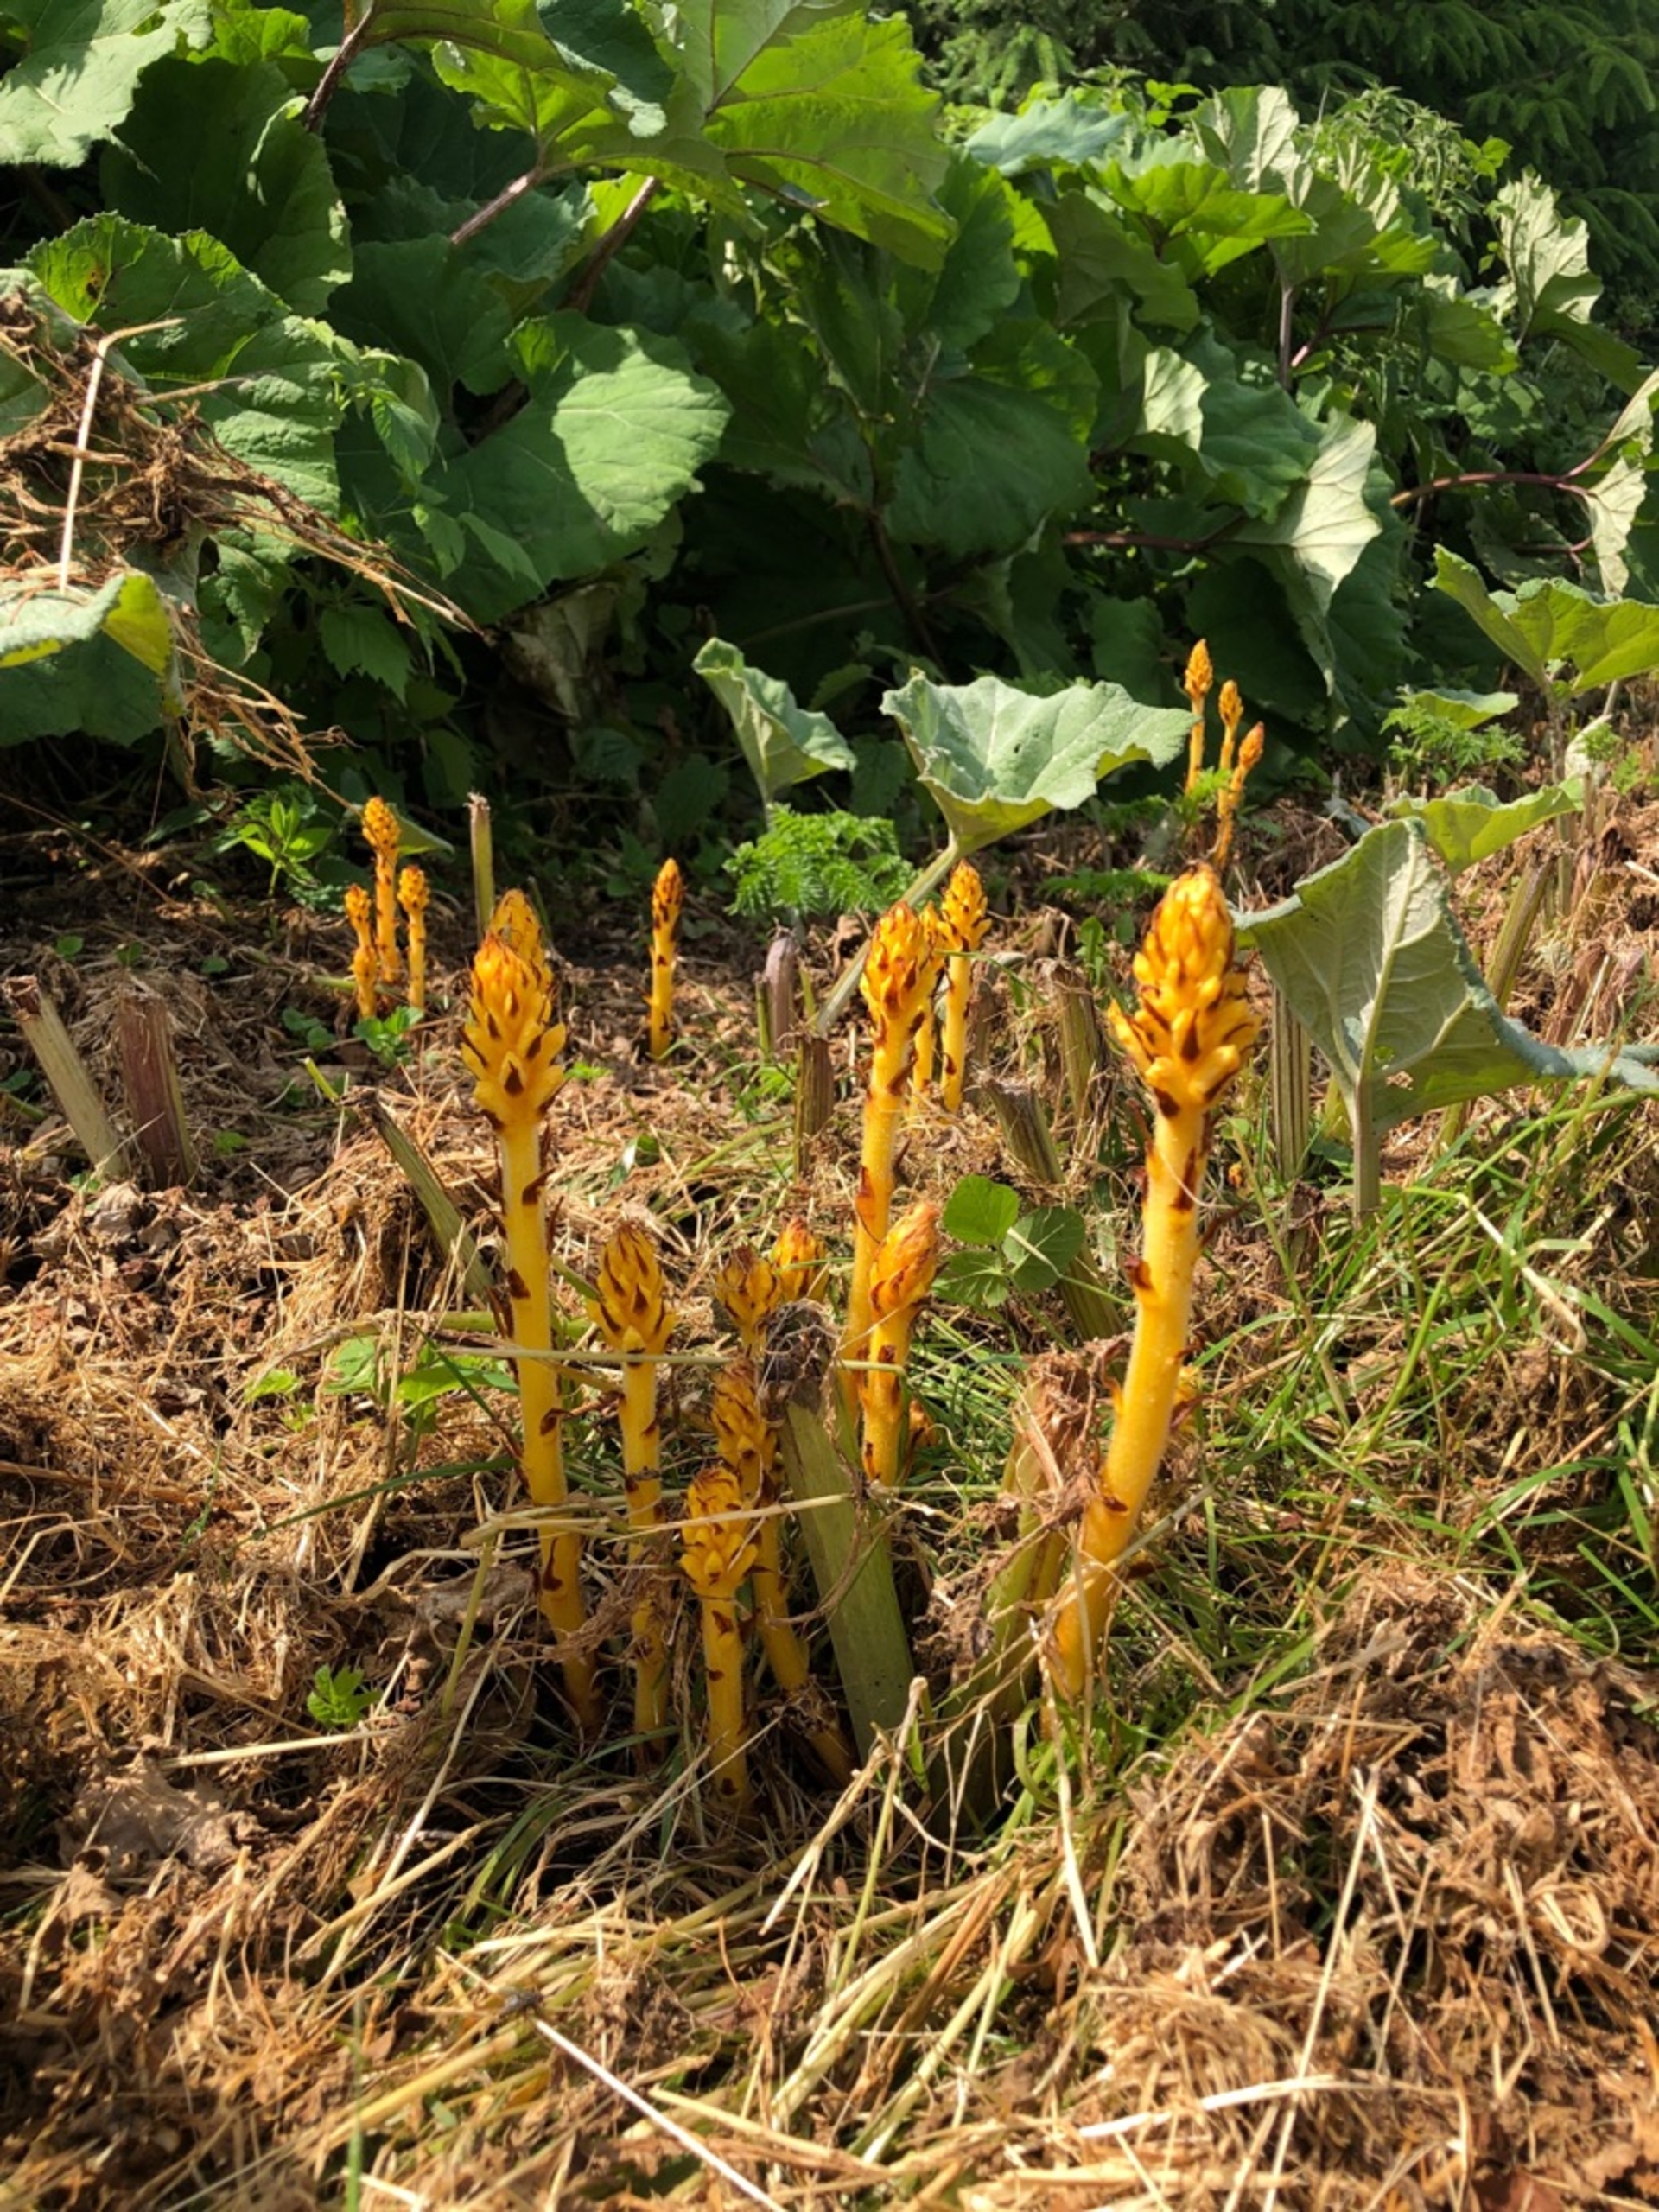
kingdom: Plantae
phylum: Tracheophyta
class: Magnoliopsida
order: Lamiales
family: Orobanchaceae
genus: Orobanche
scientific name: Orobanche flava
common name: Gul gyvelkvæler
